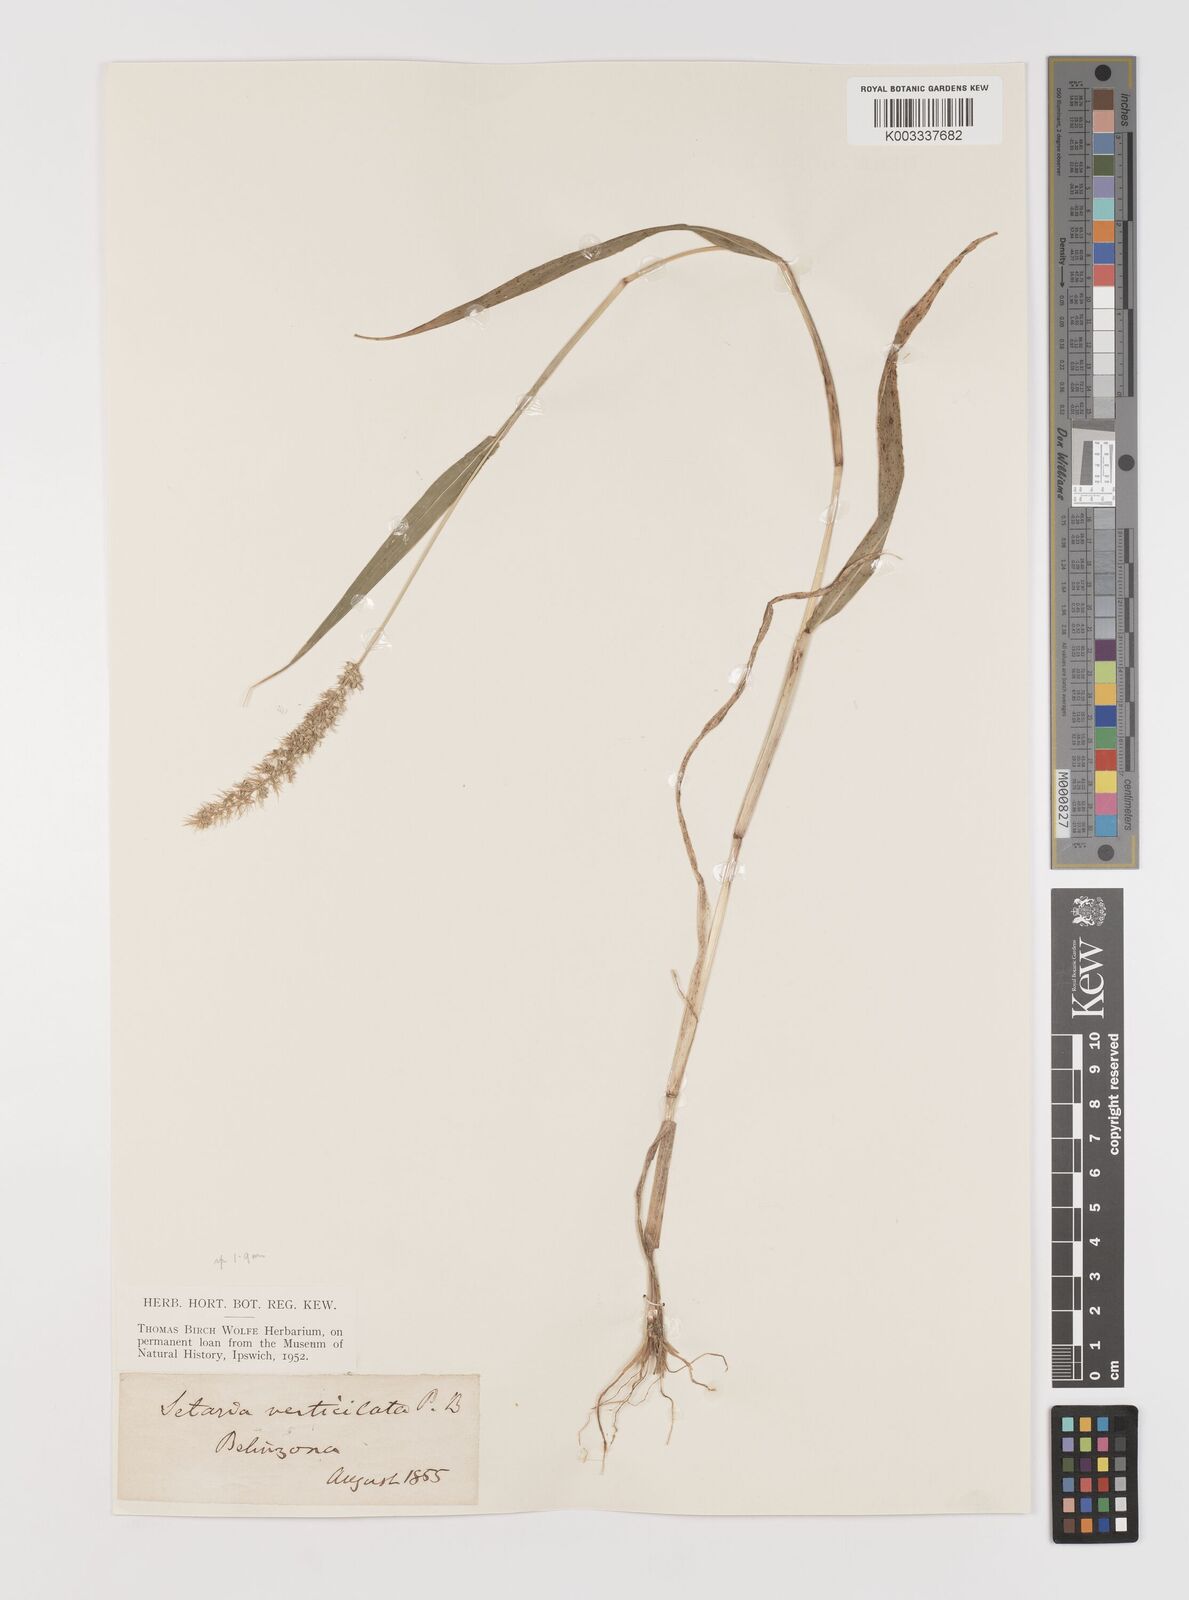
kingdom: Plantae
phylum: Tracheophyta
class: Liliopsida
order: Poales
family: Poaceae
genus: Setaria
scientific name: Setaria verticillata
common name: Hooked bristlegrass
